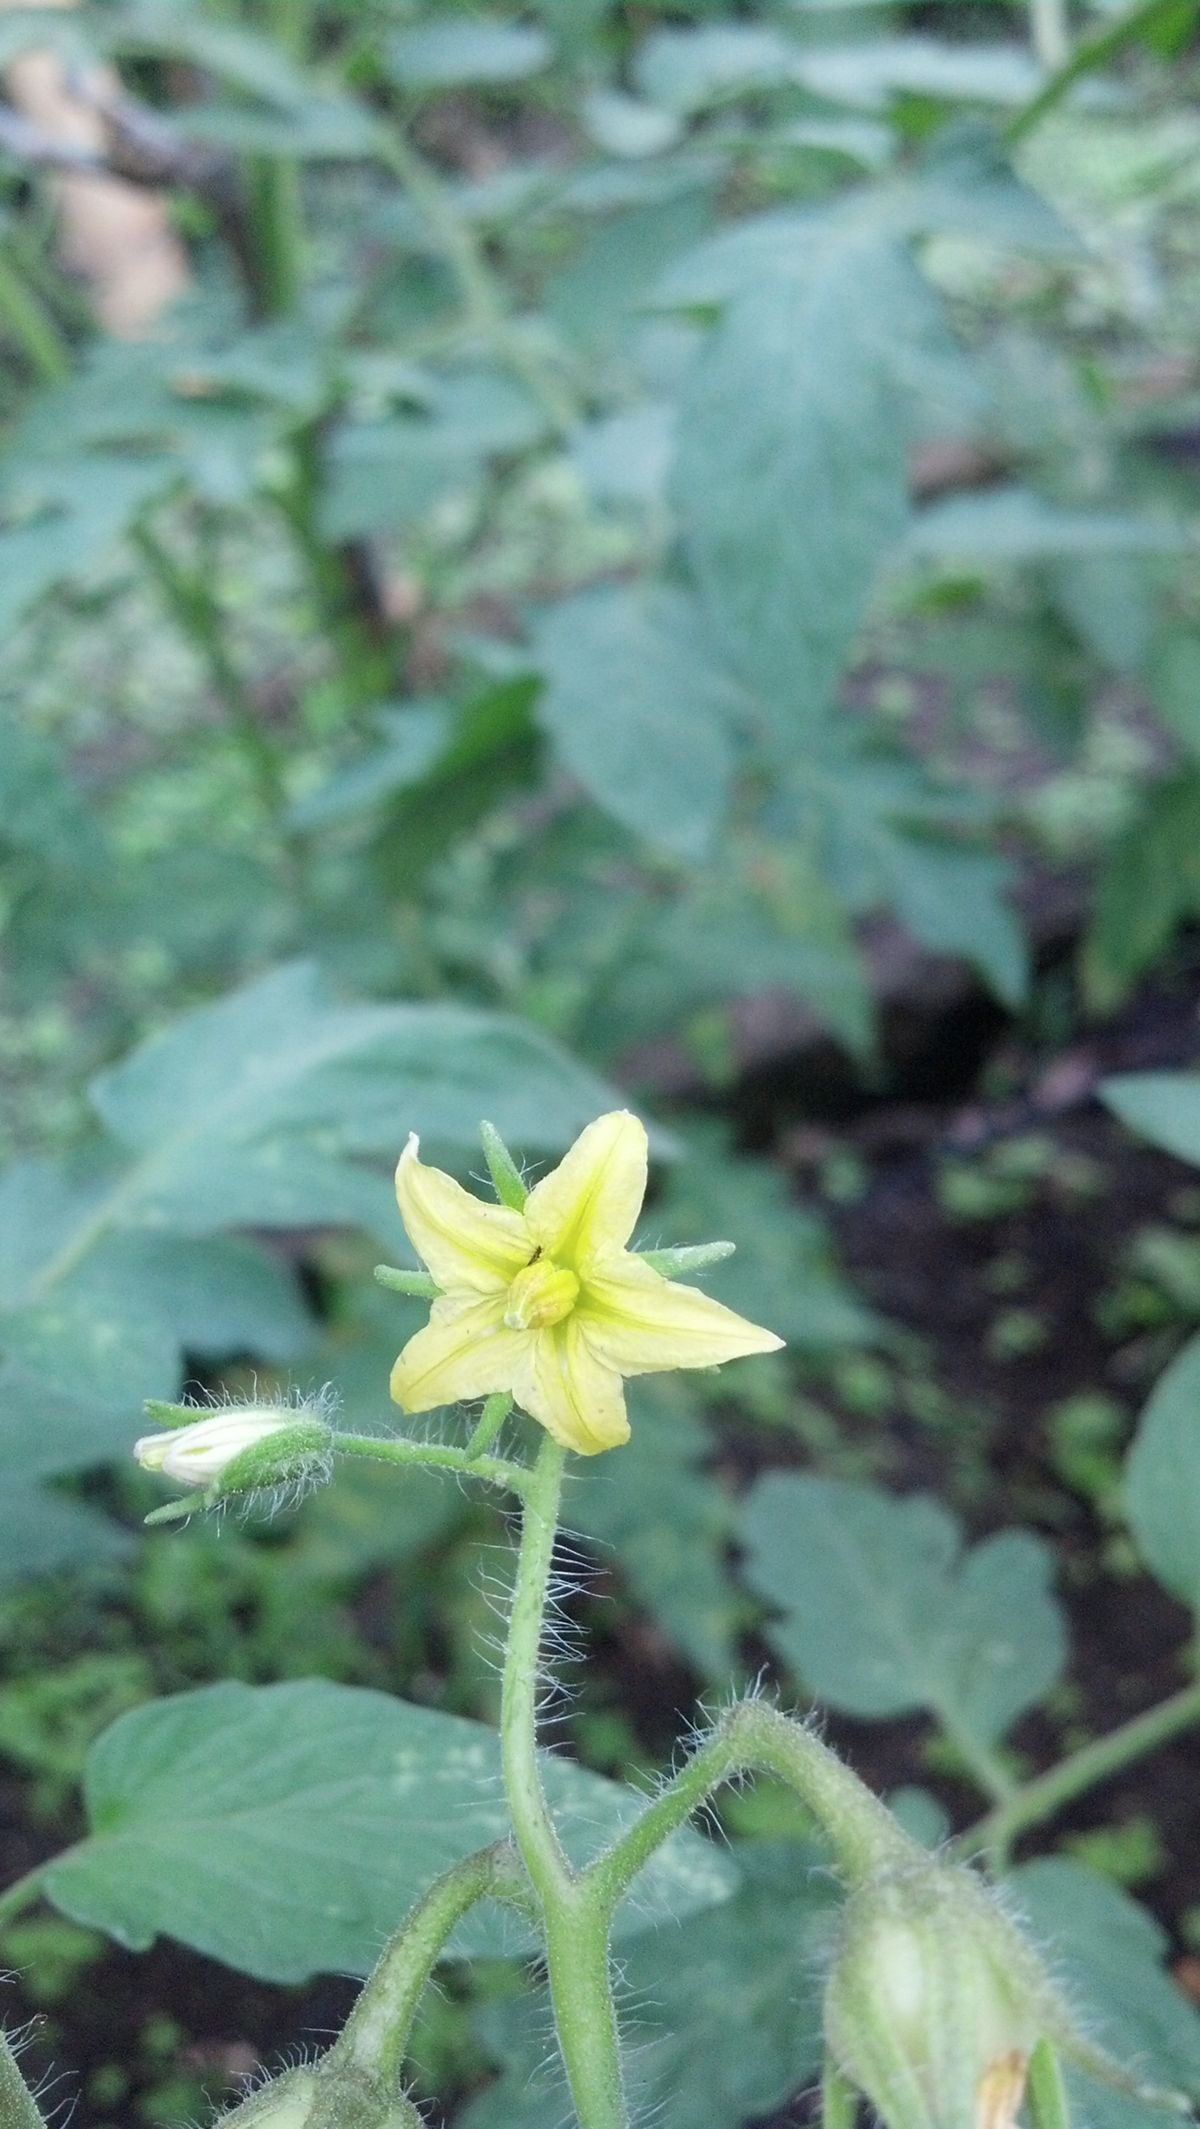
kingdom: Plantae
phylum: Tracheophyta
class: Magnoliopsida
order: Solanales
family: Solanaceae
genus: Solanum
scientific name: Solanum lycopersicum
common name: Garden tomato
